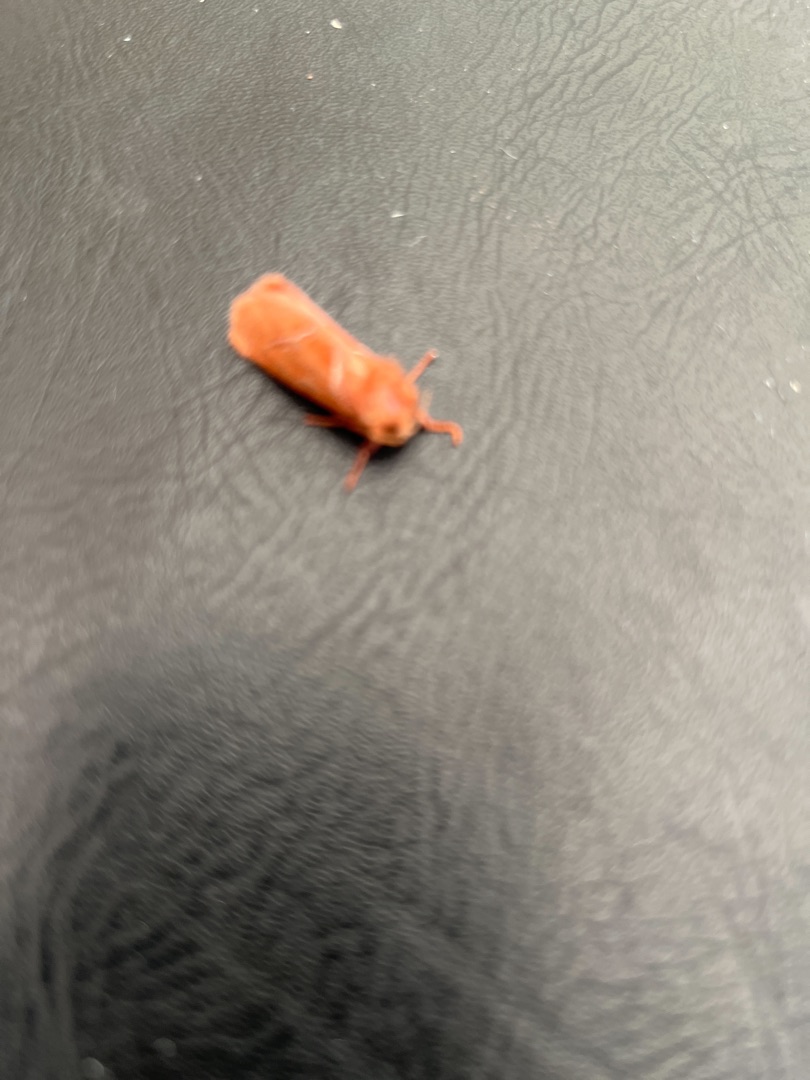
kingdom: Animalia
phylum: Arthropoda
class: Insecta
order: Lepidoptera
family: Hepialidae
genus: Triodia
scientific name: Triodia sylvina
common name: Skræpperodæder
